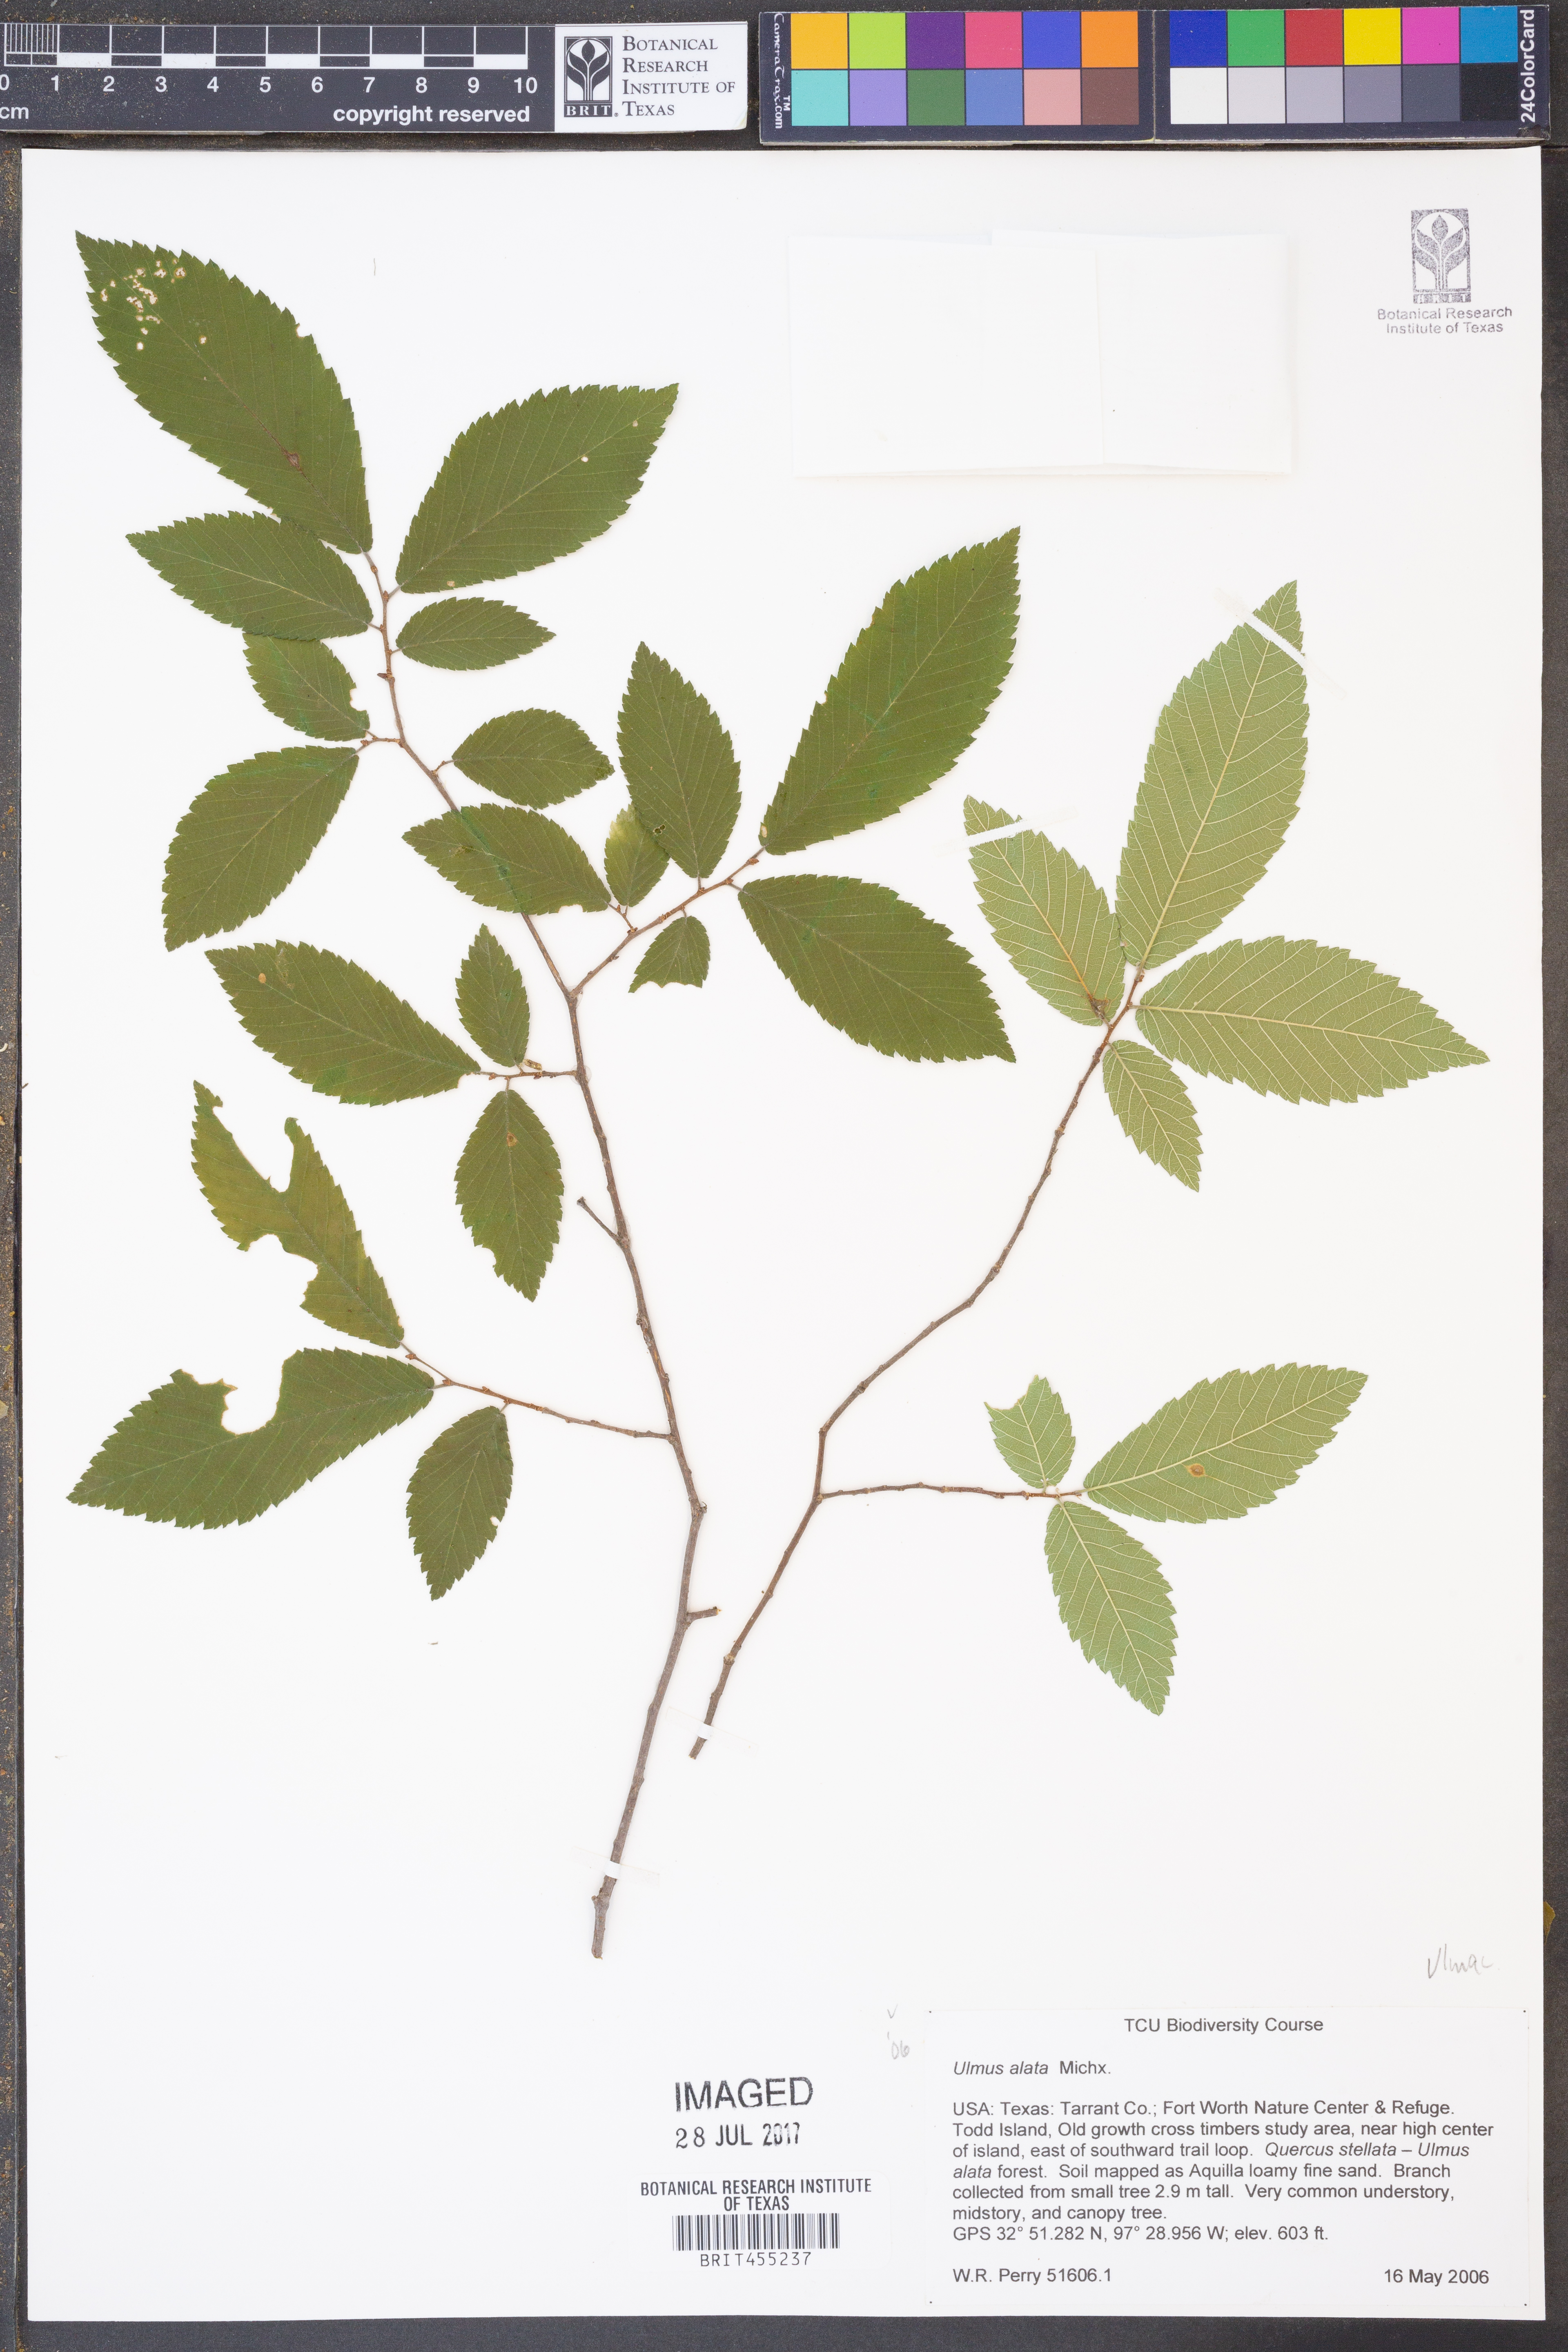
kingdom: Plantae
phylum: Tracheophyta
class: Magnoliopsida
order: Rosales
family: Ulmaceae
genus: Ulmus
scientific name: Ulmus alata
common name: Winged elm
